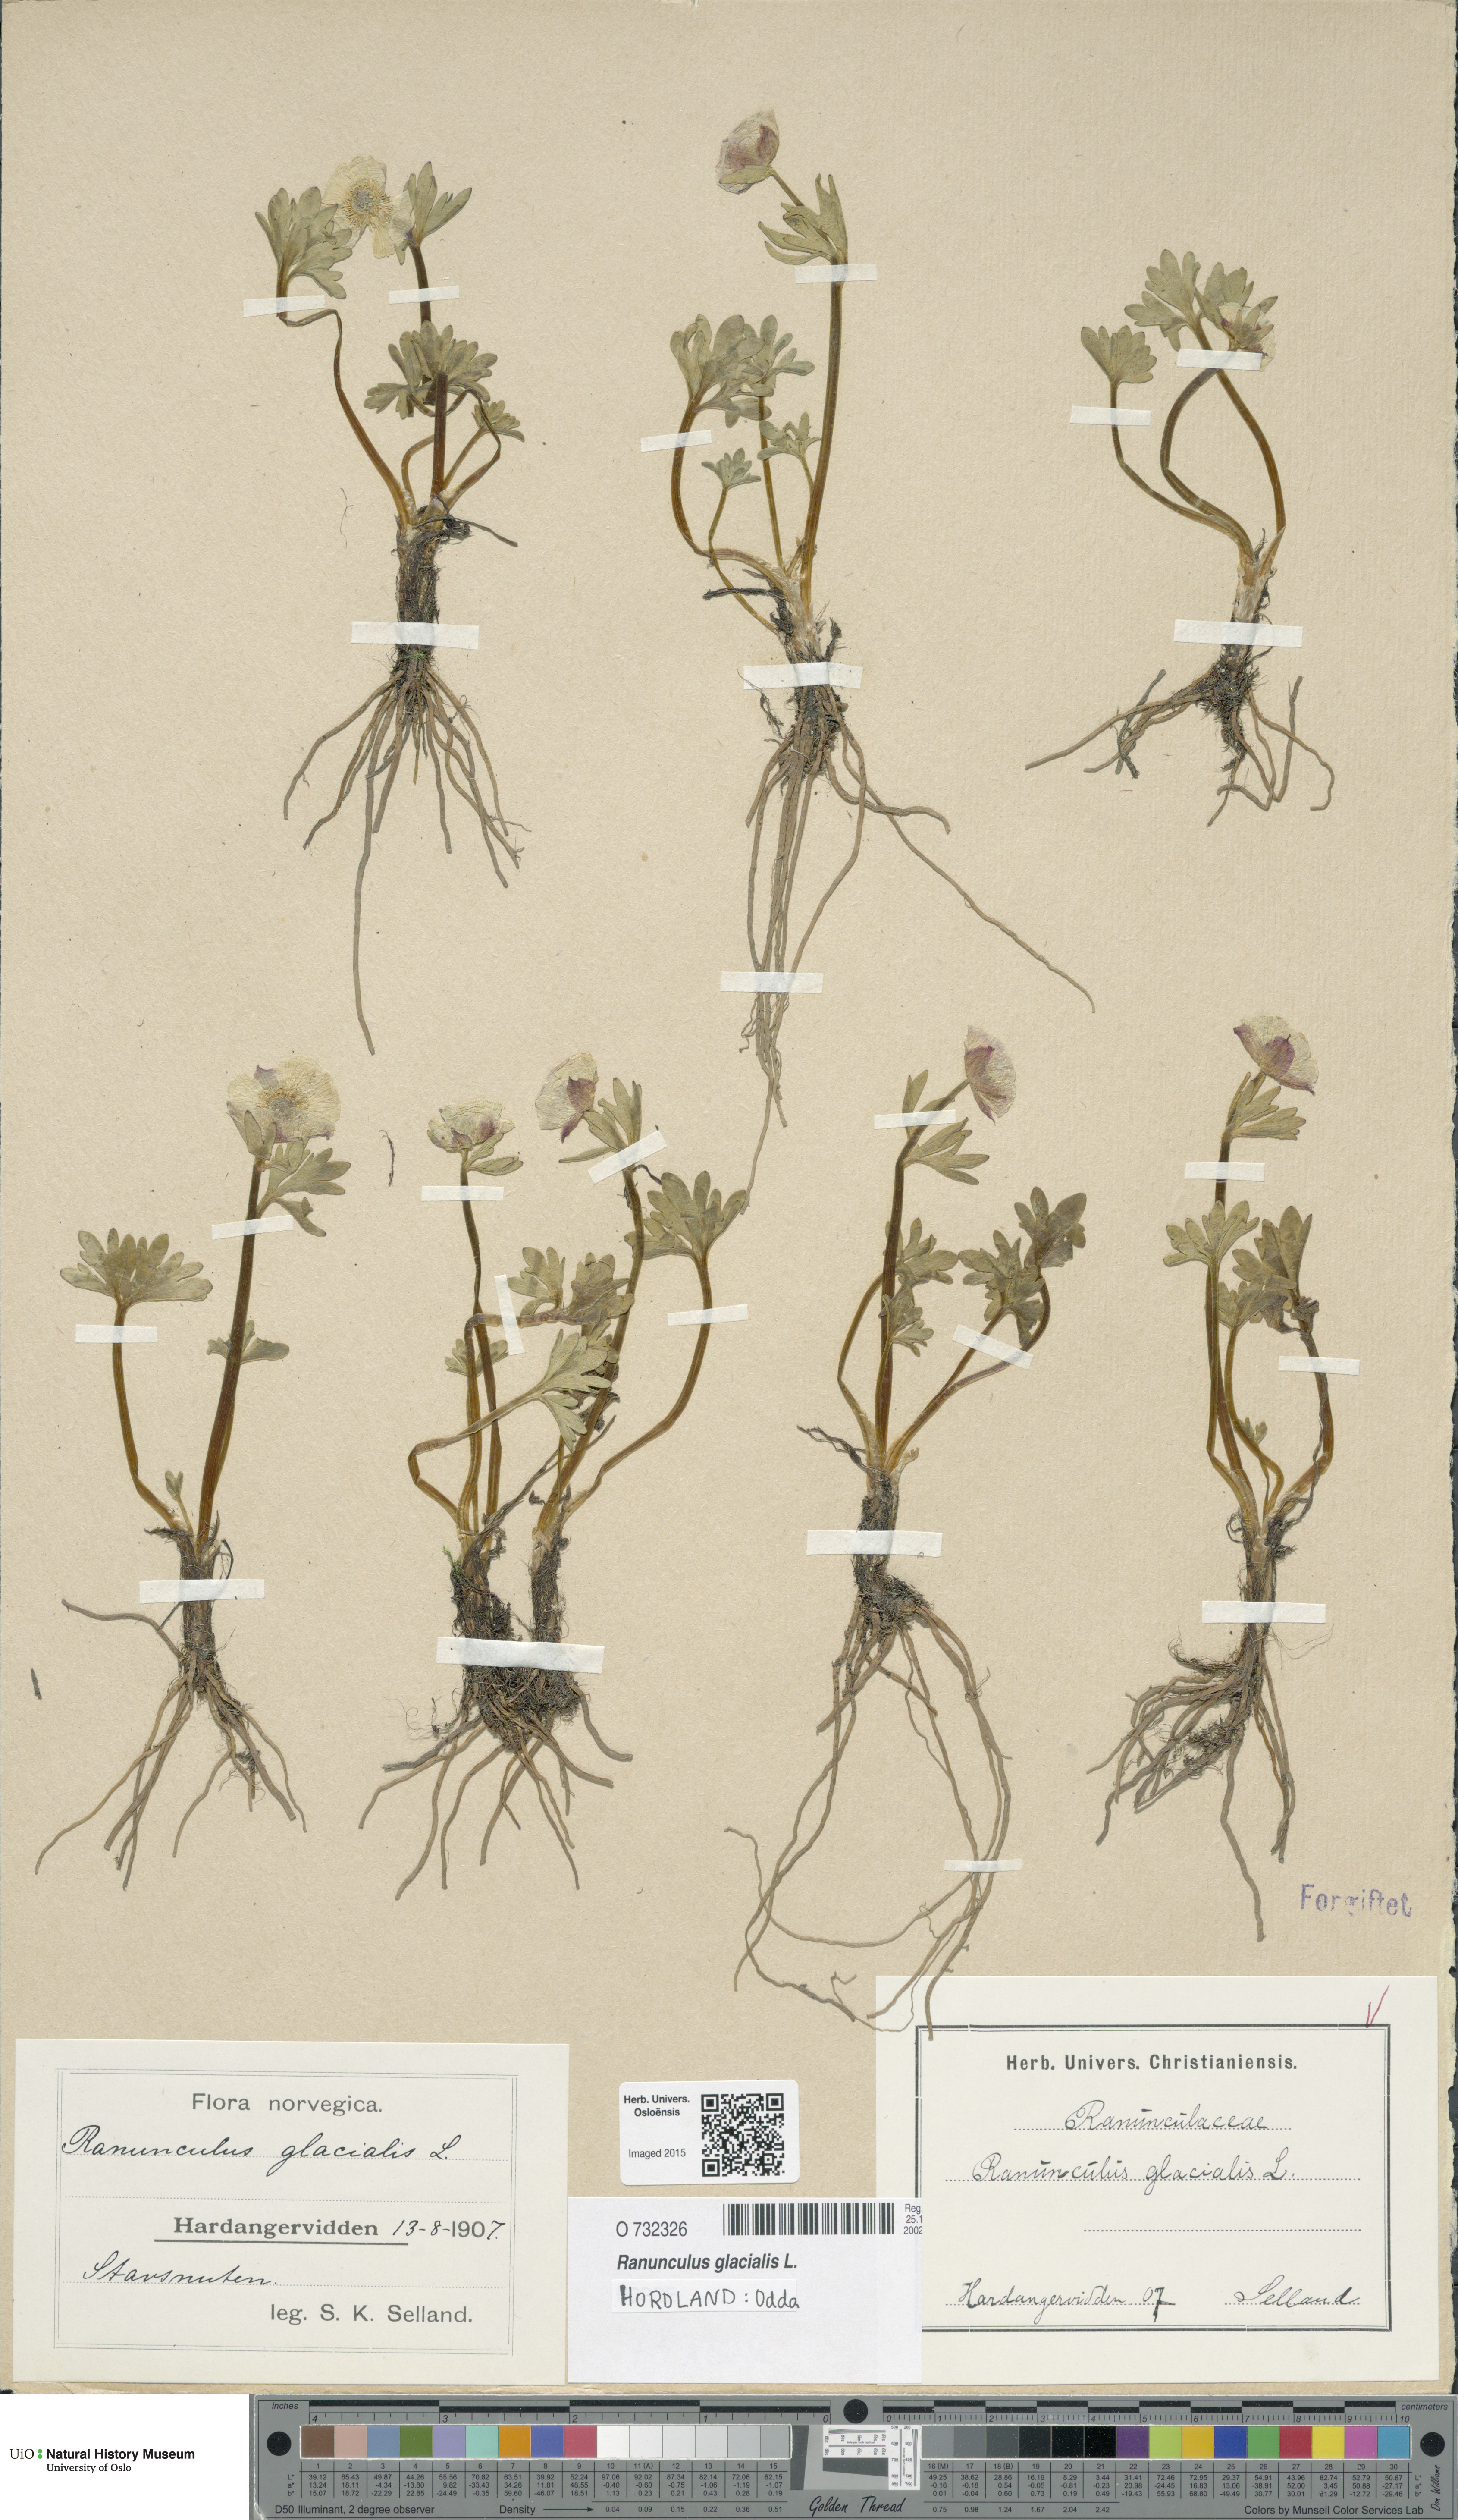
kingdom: Plantae
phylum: Tracheophyta
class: Magnoliopsida
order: Ranunculales
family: Ranunculaceae
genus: Ranunculus
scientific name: Ranunculus glacialis
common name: Glacier buttercup
